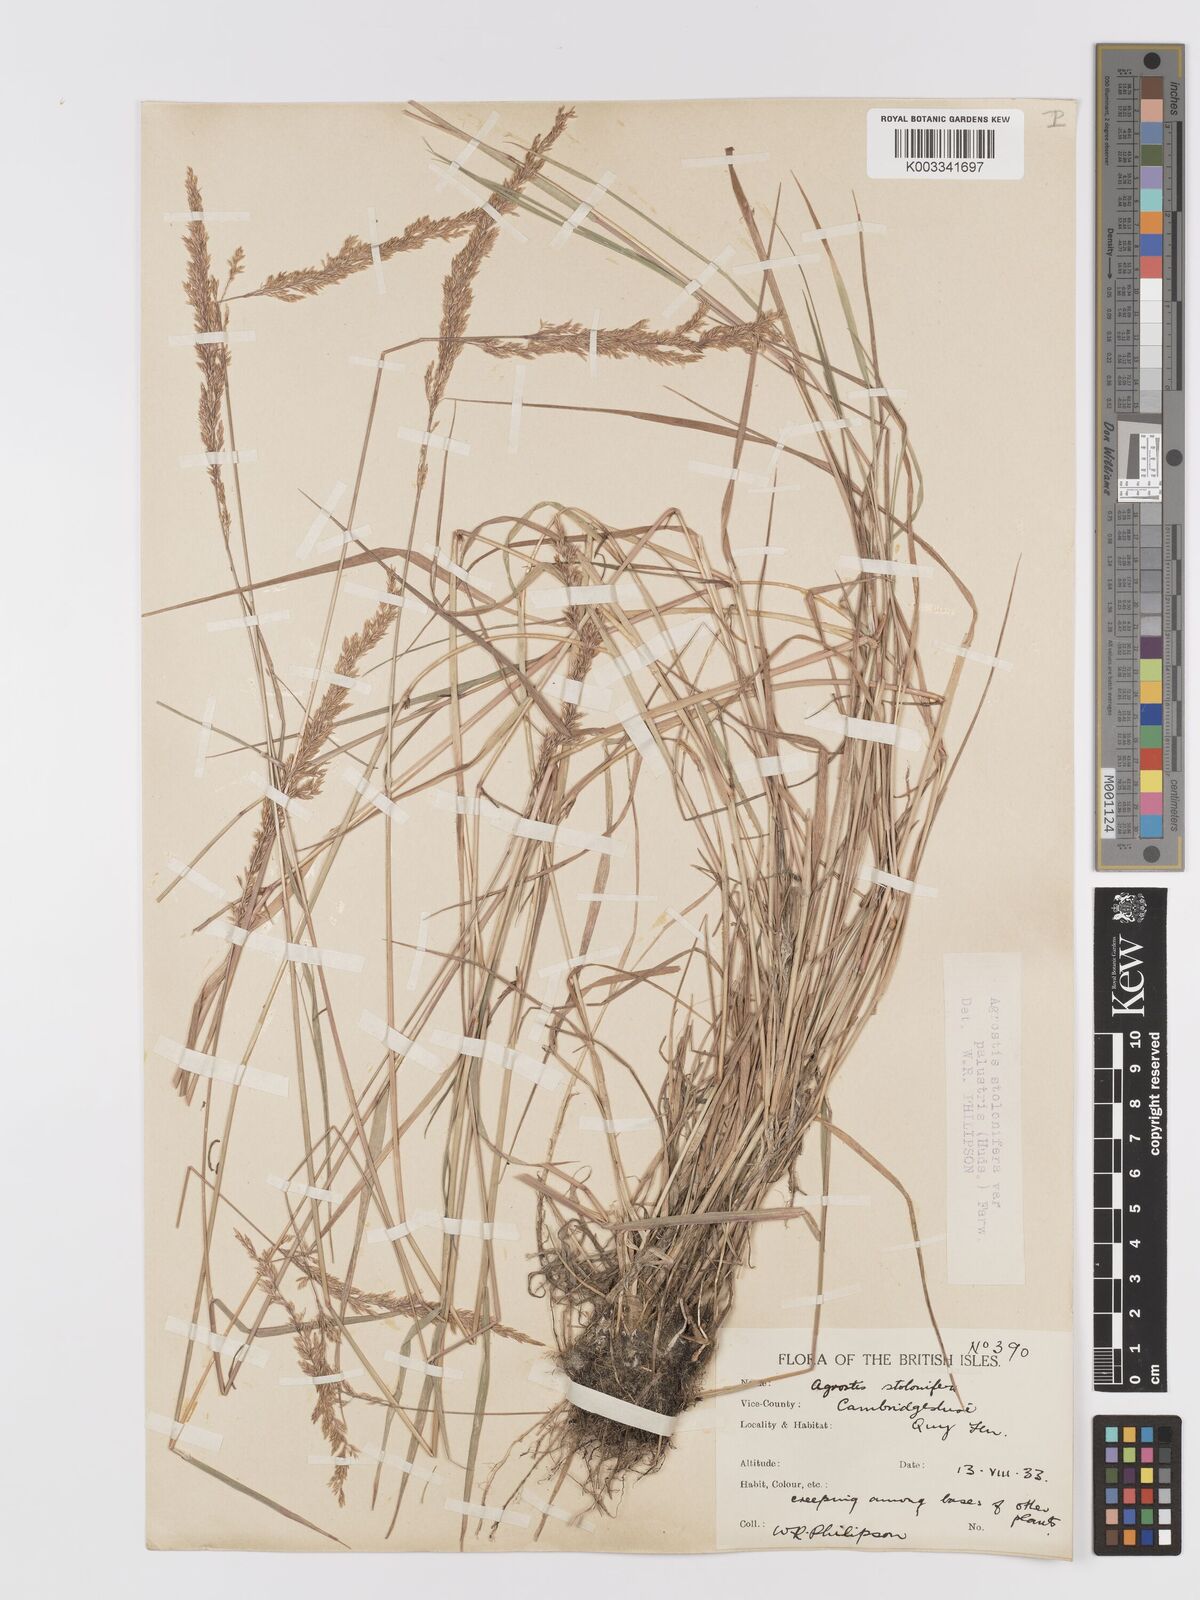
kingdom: Plantae
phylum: Tracheophyta
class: Liliopsida
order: Poales
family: Poaceae
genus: Agrostis
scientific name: Agrostis stolonifera
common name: Creeping bentgrass
